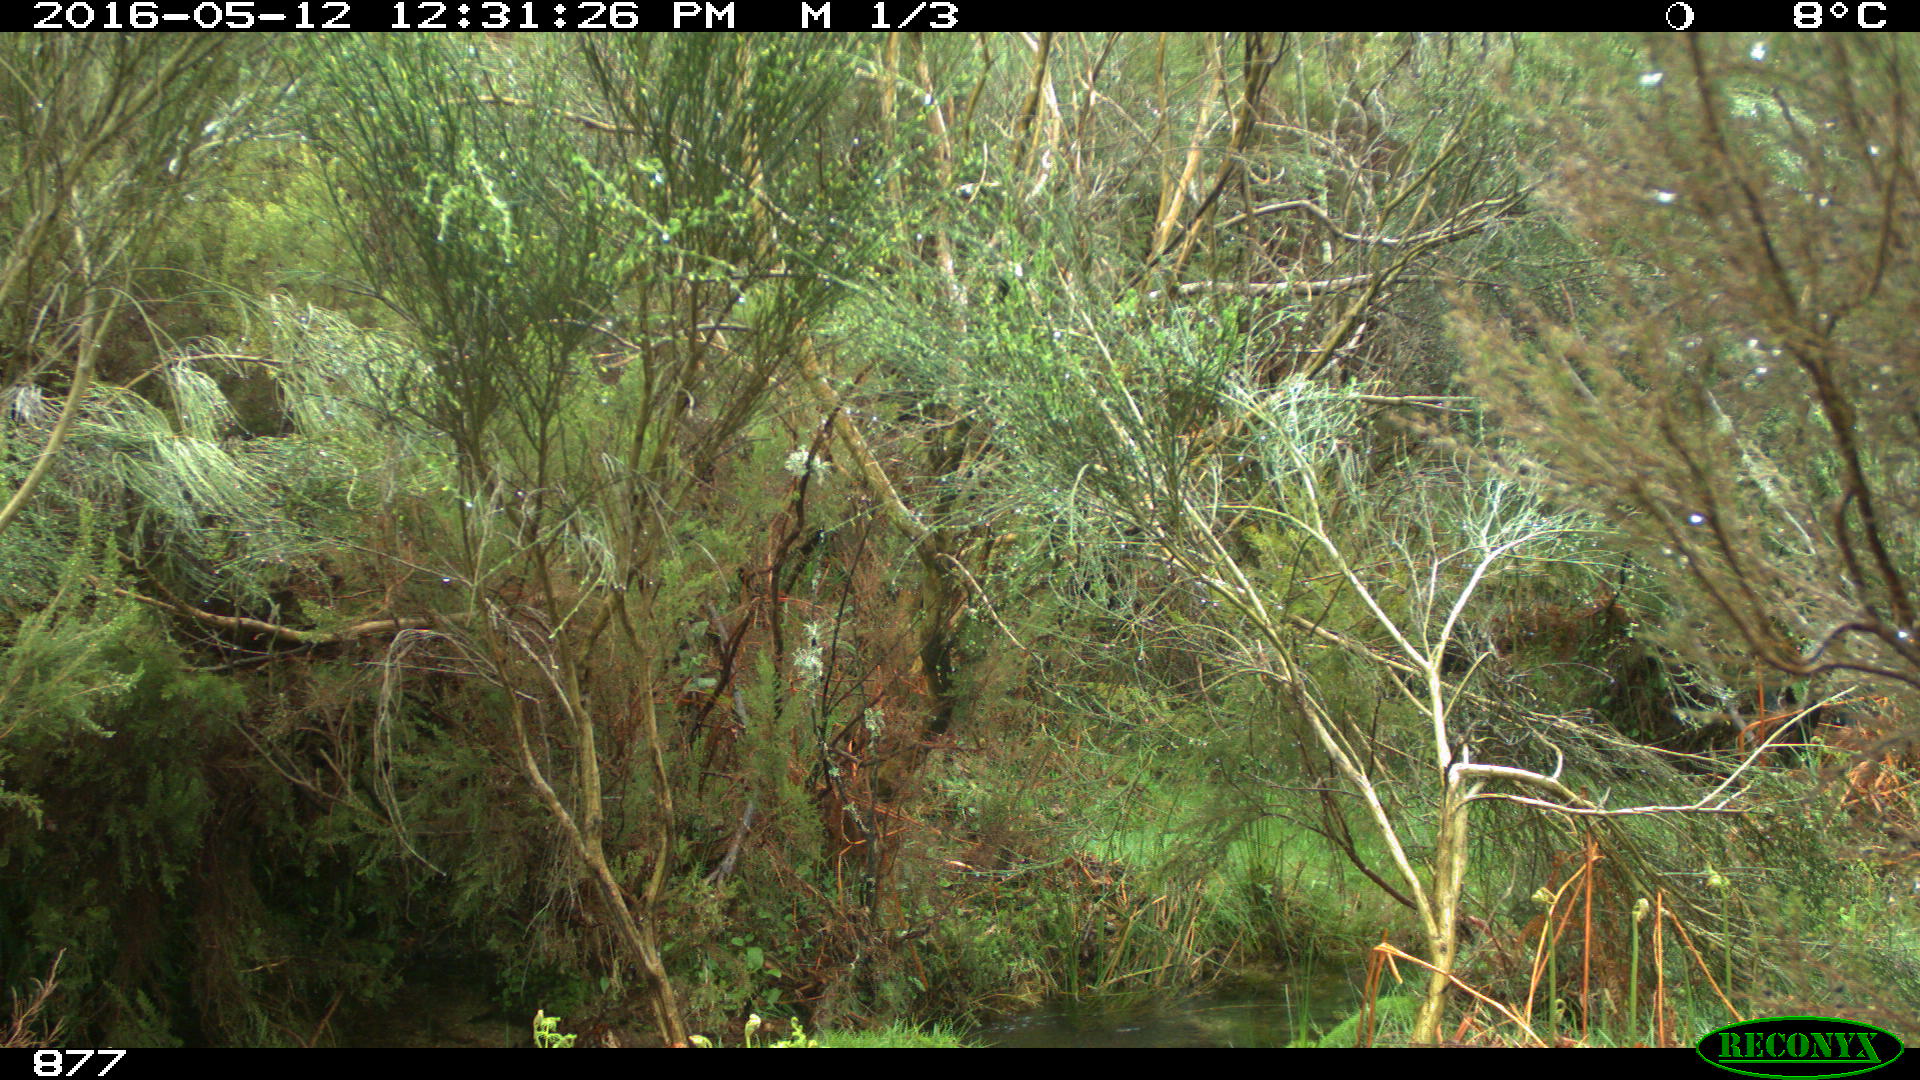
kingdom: Animalia
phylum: Chordata
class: Mammalia
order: Artiodactyla
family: Suidae
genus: Sus
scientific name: Sus scrofa
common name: Wild boar
